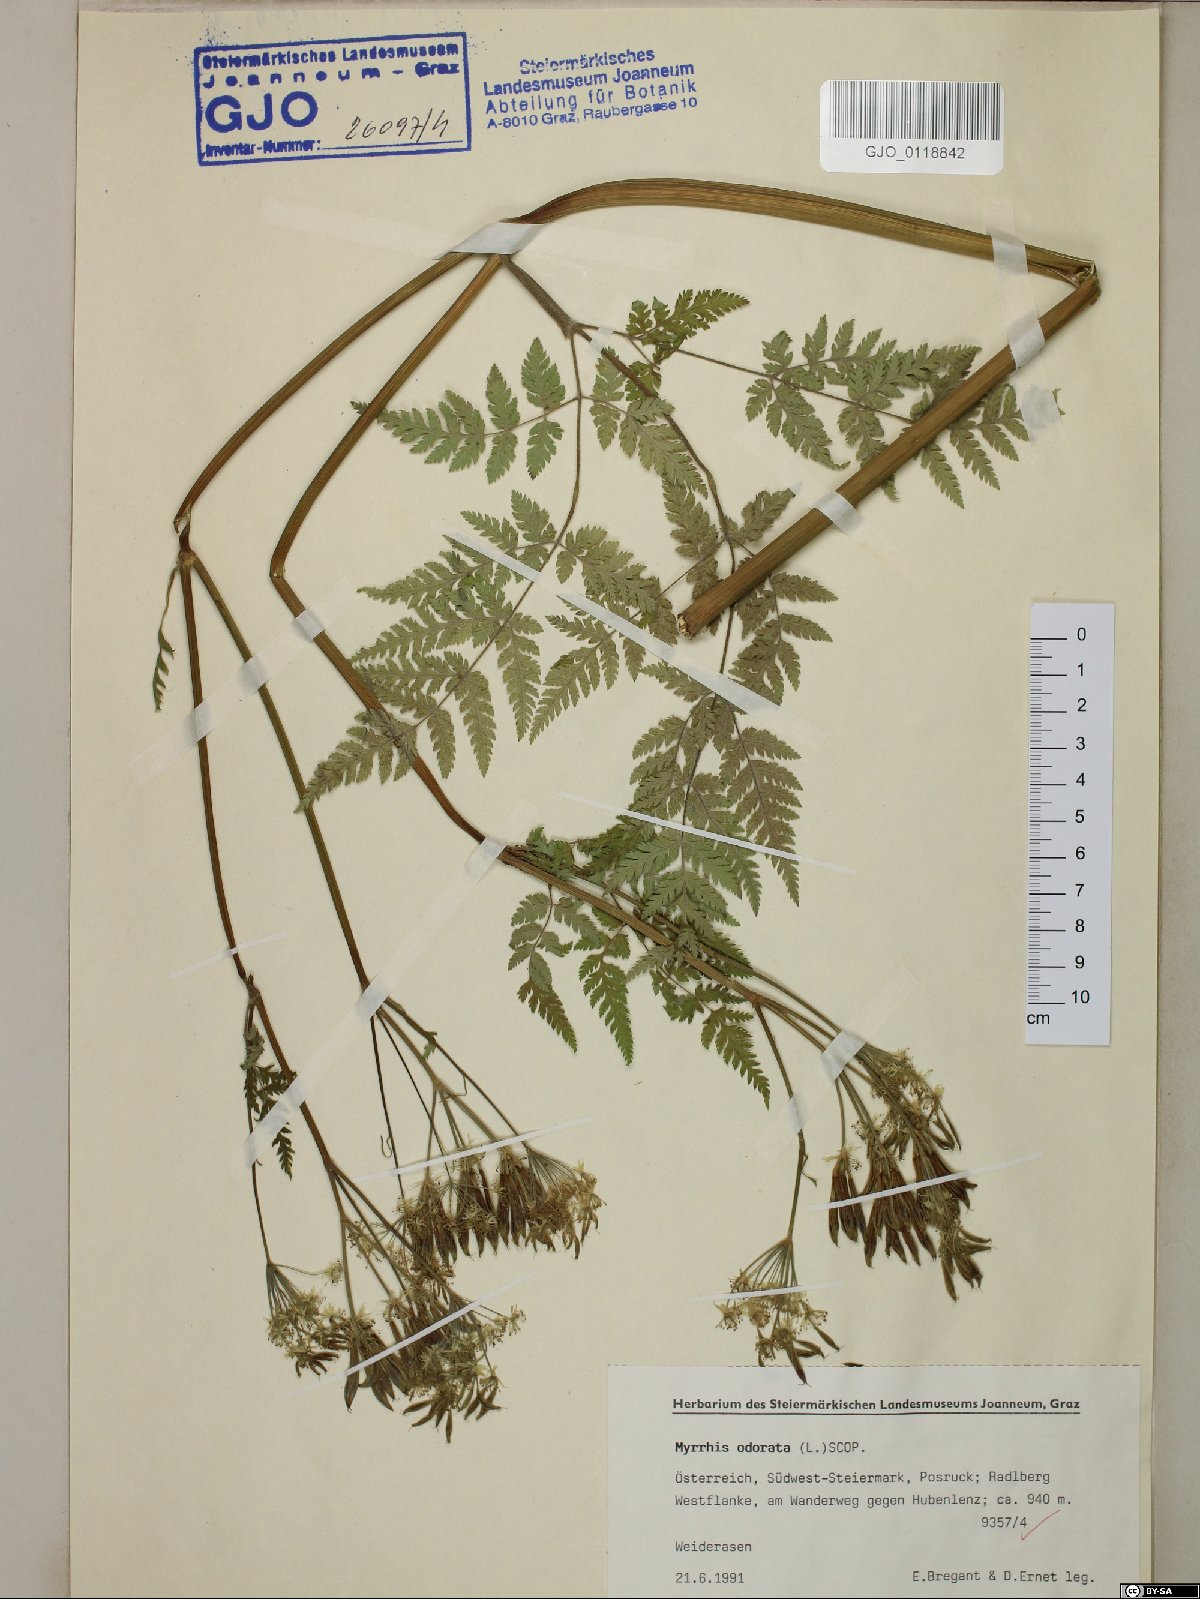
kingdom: Plantae
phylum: Tracheophyta
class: Magnoliopsida
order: Apiales
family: Apiaceae
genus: Myrrhis
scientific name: Myrrhis odorata
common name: Sweet cicely
